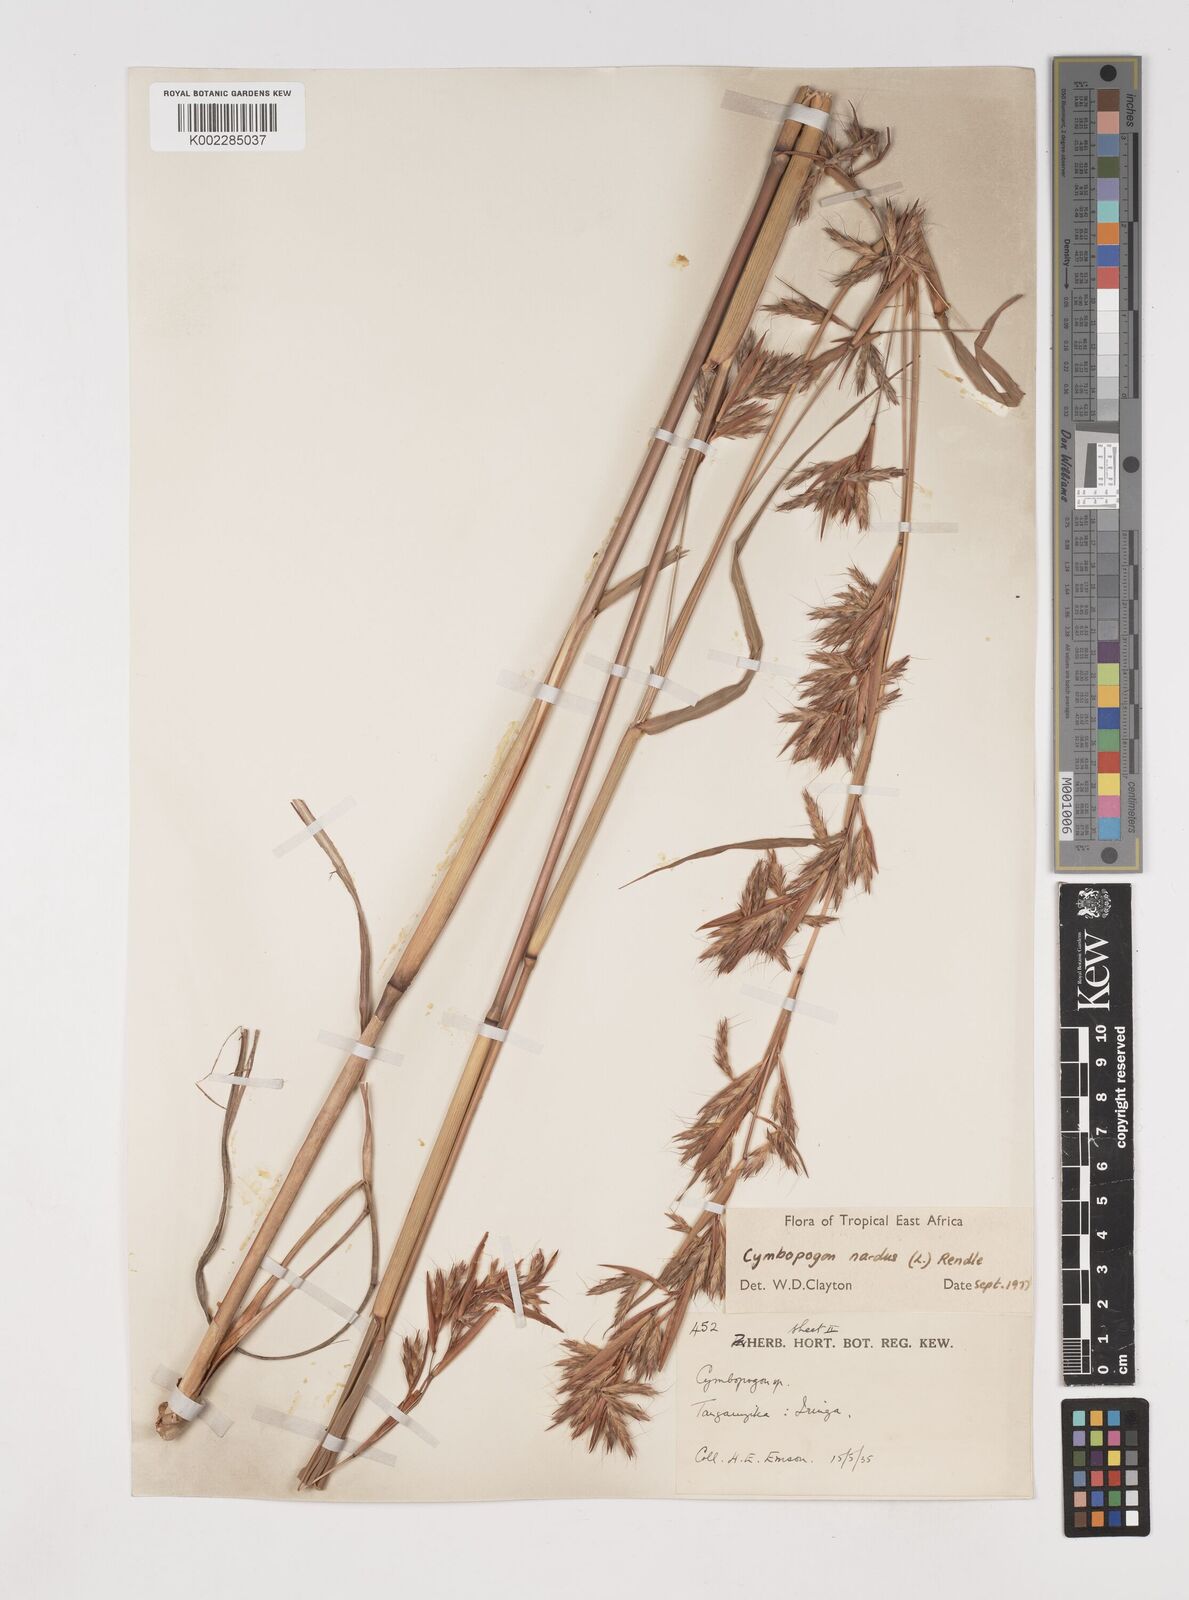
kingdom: Plantae
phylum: Tracheophyta
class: Liliopsida
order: Poales
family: Poaceae
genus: Cymbopogon
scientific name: Cymbopogon nardus
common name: Giant turpentine grass
